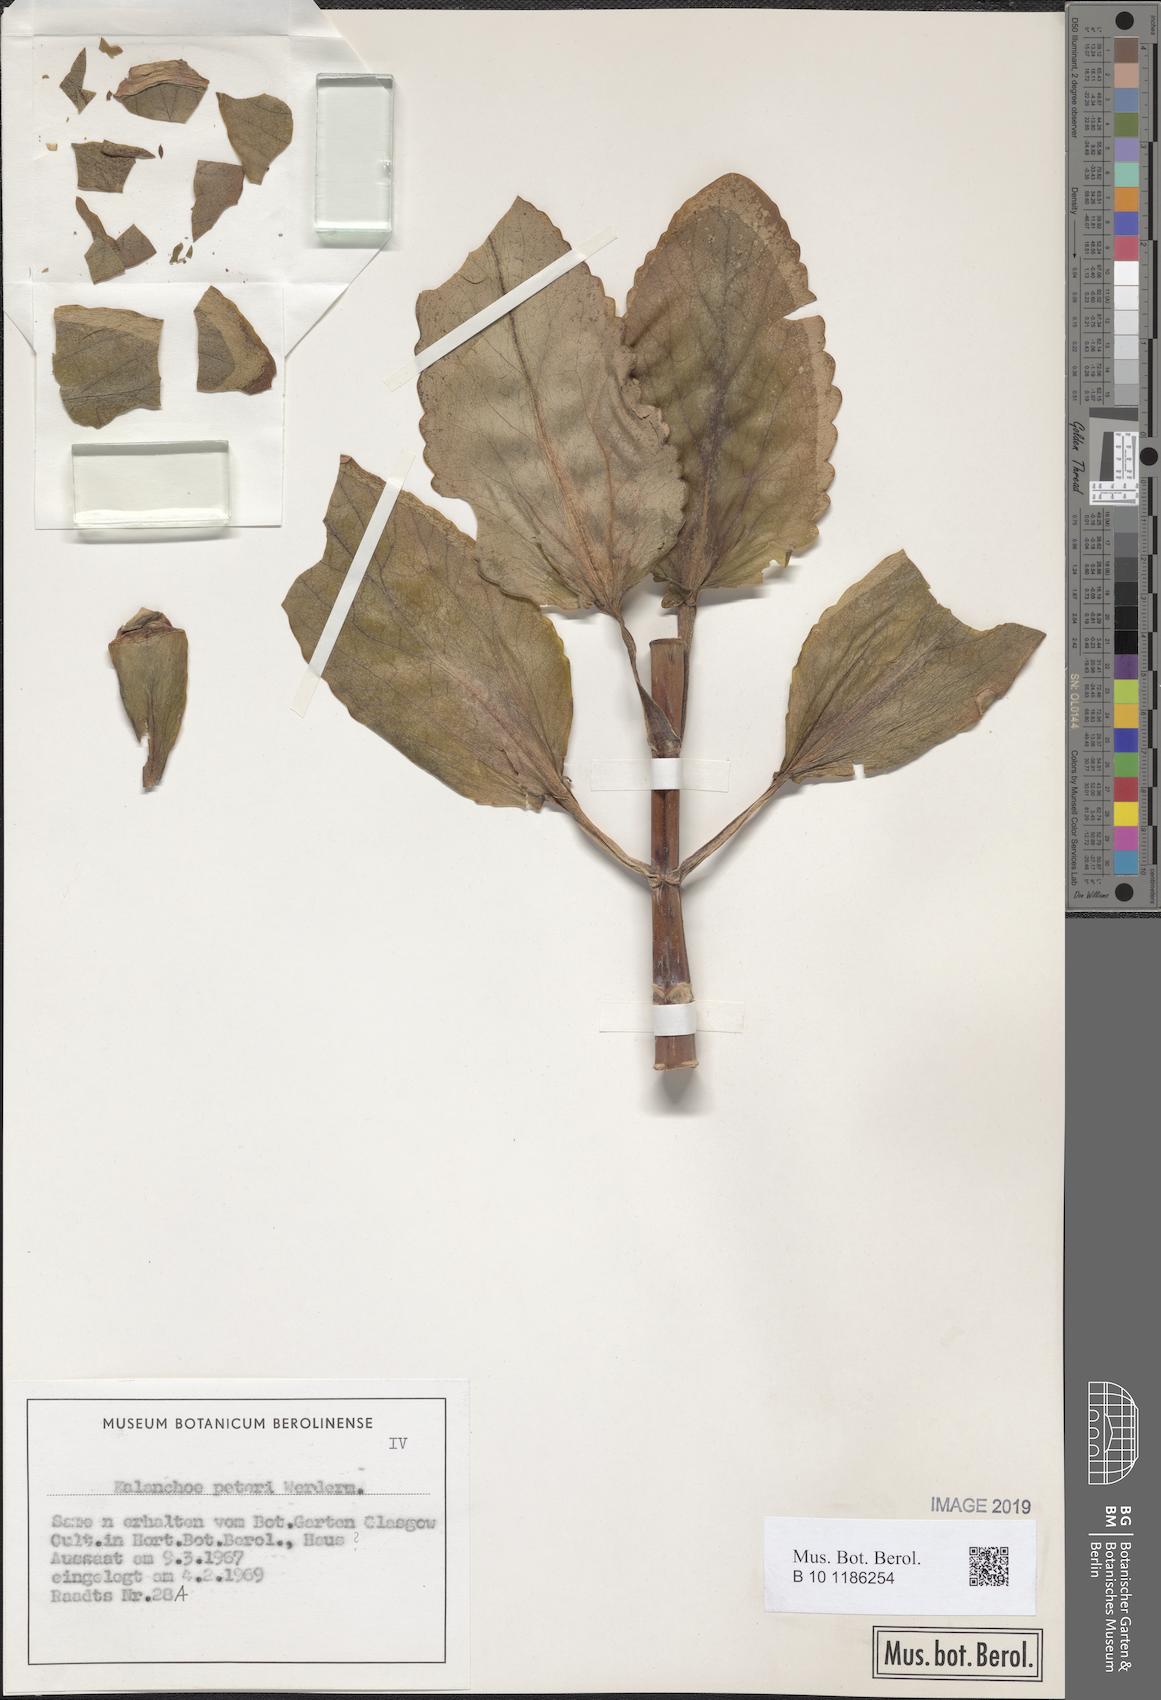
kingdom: Plantae
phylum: Tracheophyta
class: Magnoliopsida
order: Saxifragales
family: Crassulaceae
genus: Kalanchoe
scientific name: Kalanchoe peteri
